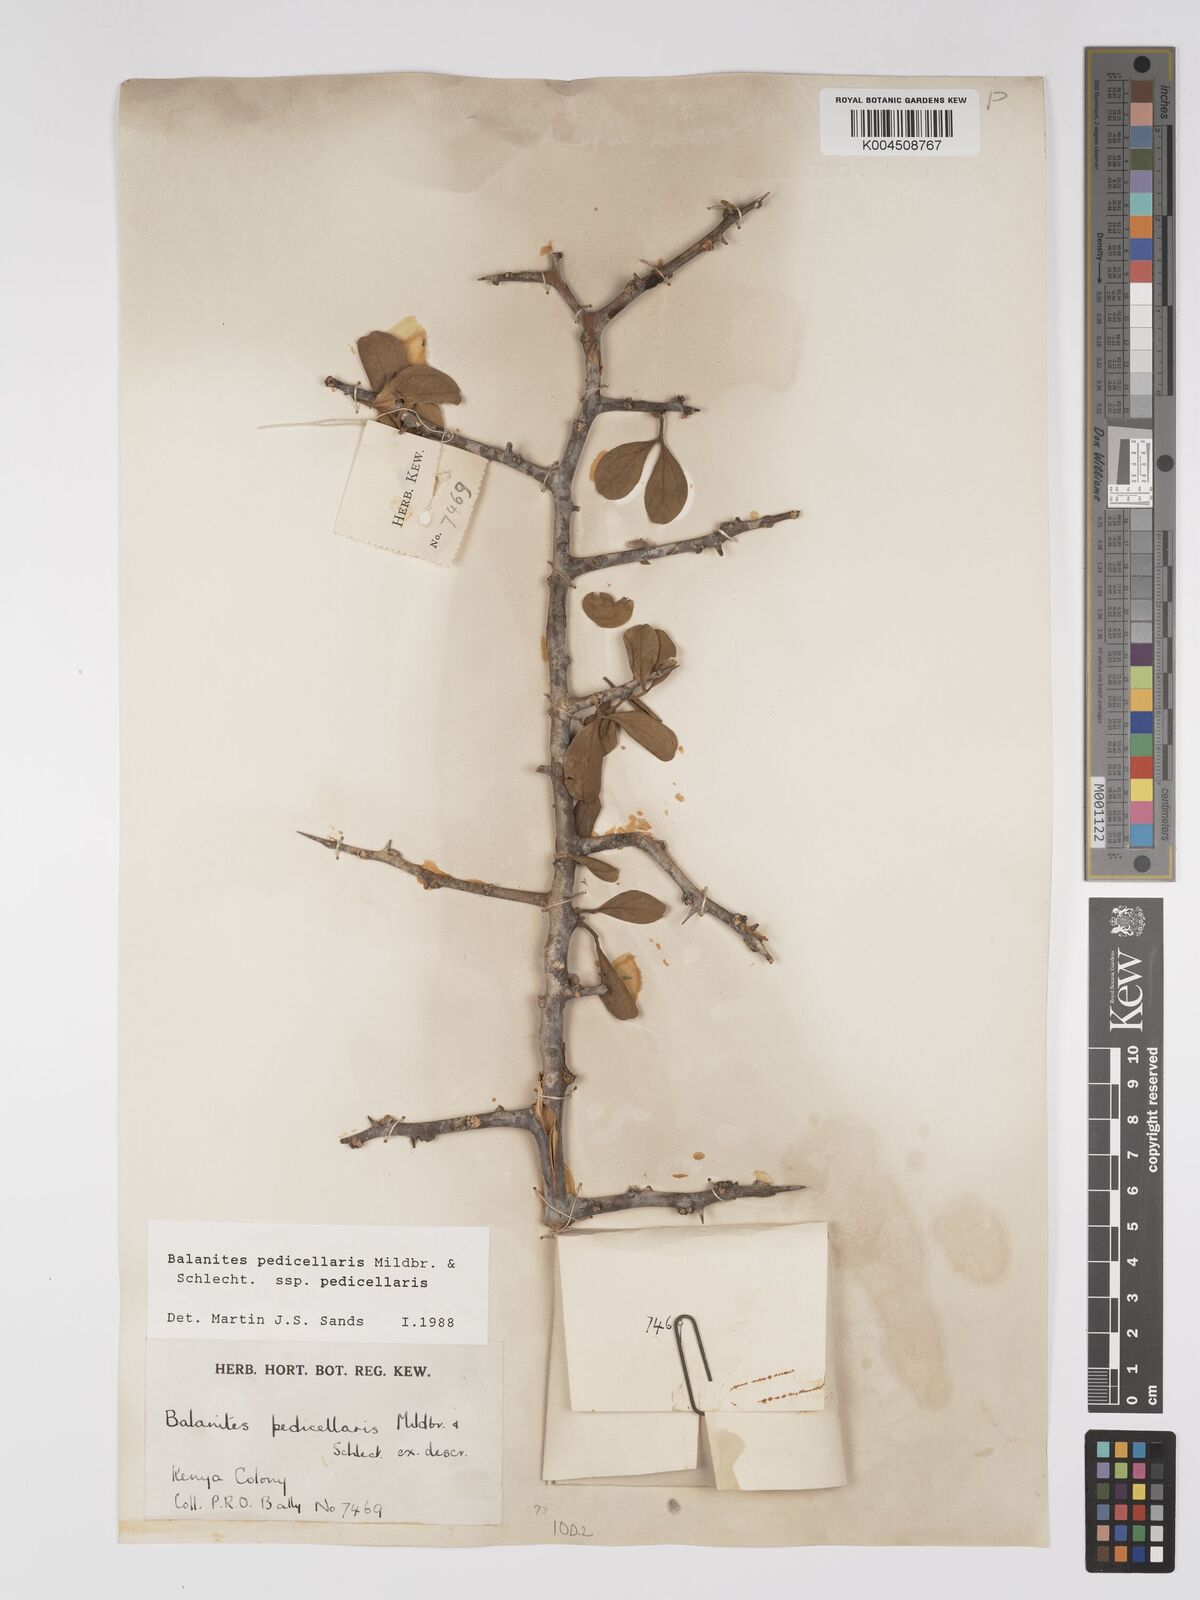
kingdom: Plantae
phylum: Tracheophyta
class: Magnoliopsida
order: Zygophyllales
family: Zygophyllaceae
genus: Balanites
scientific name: Balanites pedicellaris
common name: Small green-thorn
